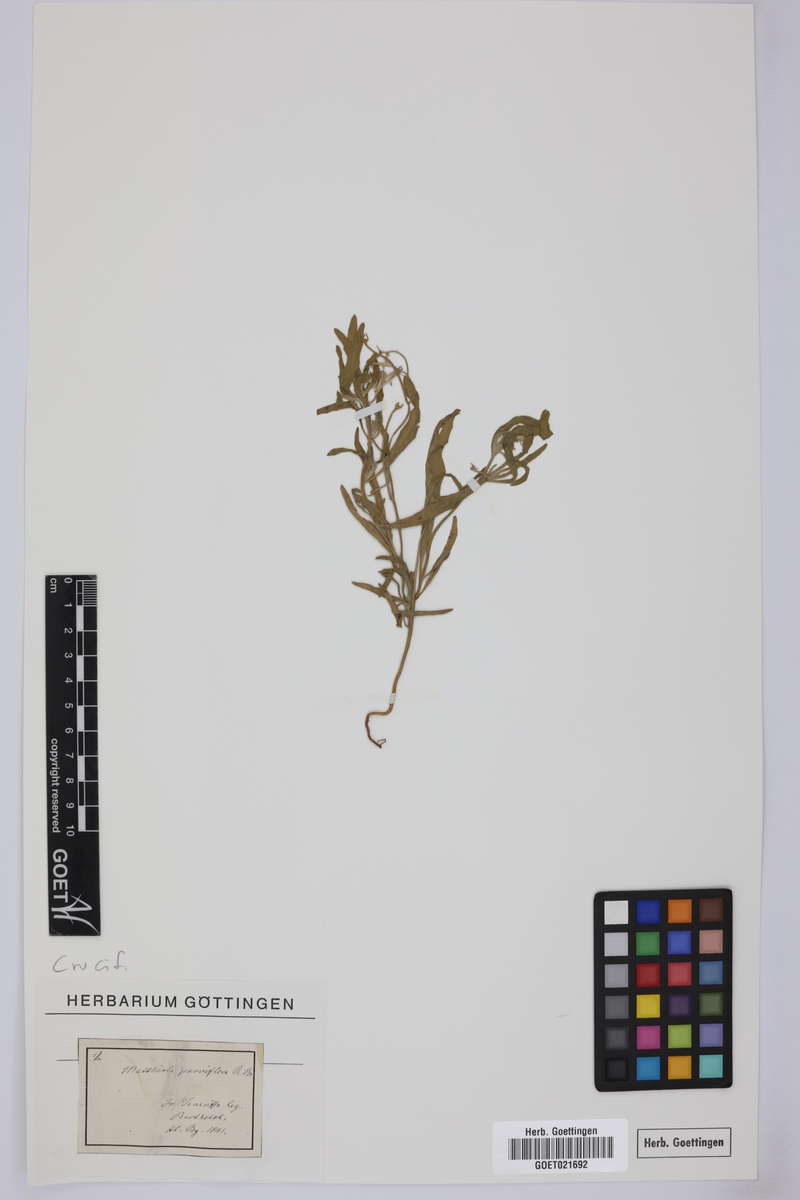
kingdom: Plantae
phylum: Tracheophyta
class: Magnoliopsida
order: Brassicales
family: Brassicaceae
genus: Matthiola
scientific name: Matthiola parviflora
